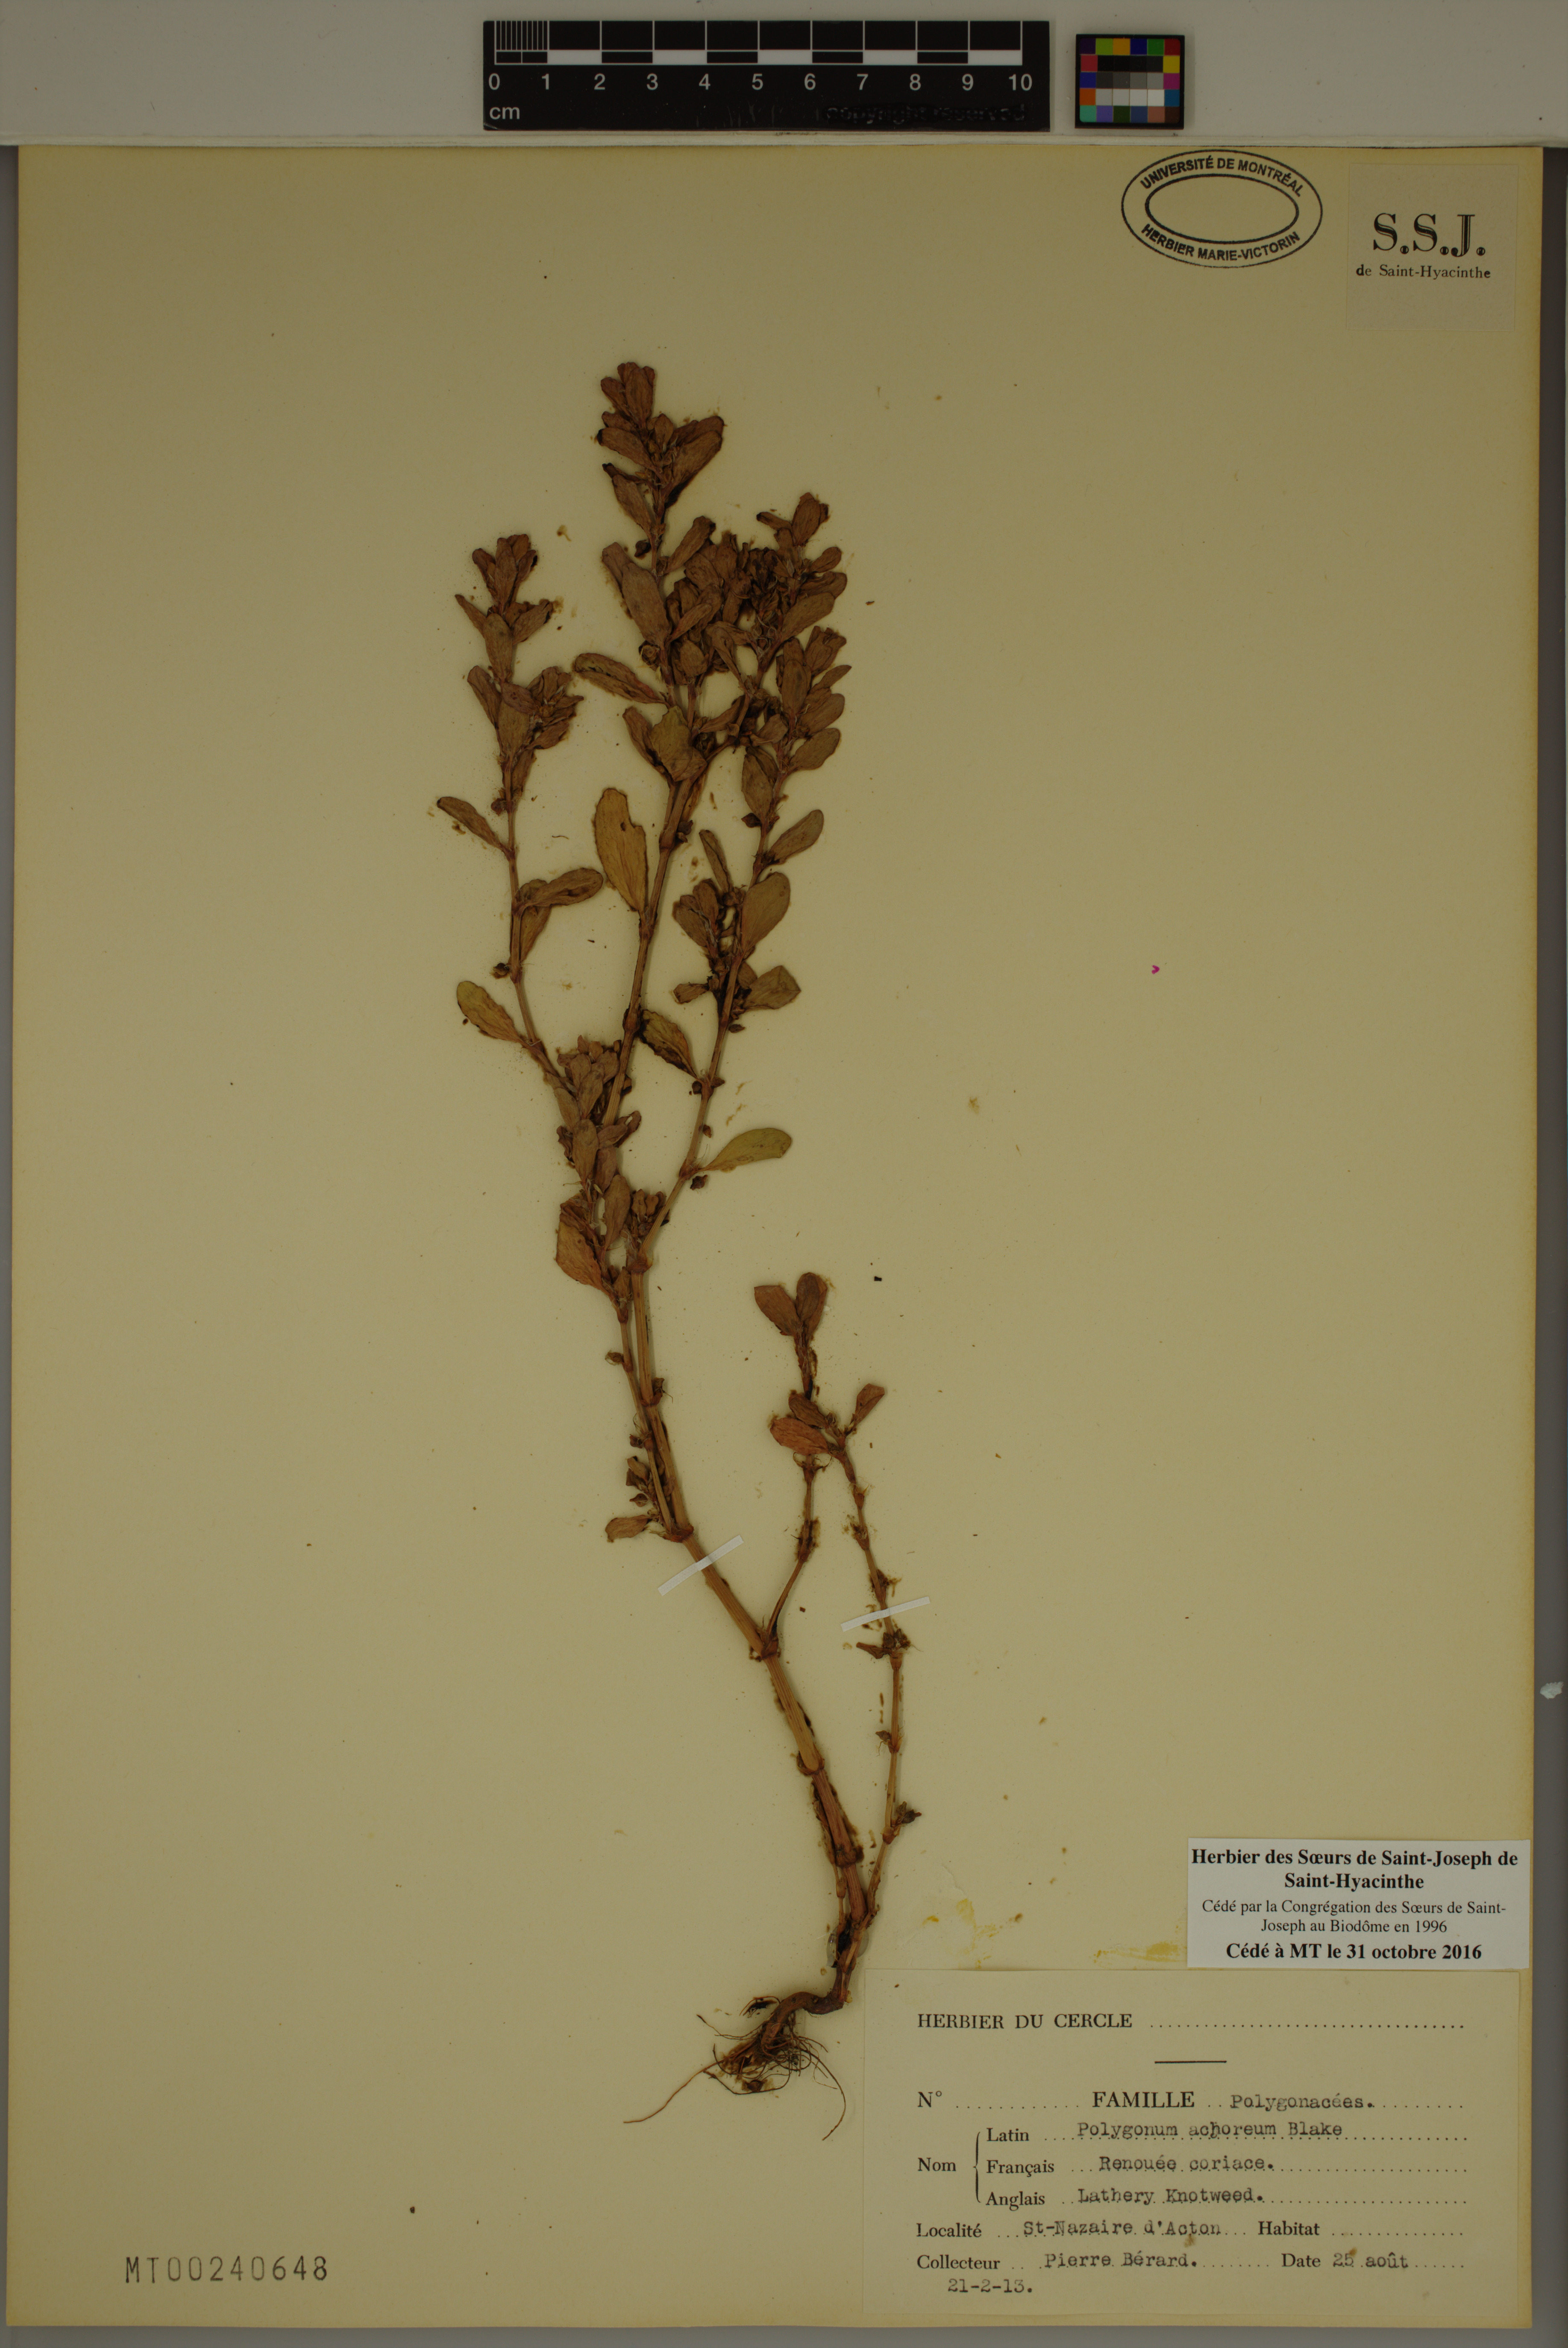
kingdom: Plantae
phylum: Tracheophyta
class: Magnoliopsida
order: Caryophyllales
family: Polygonaceae
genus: Polygonum
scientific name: Polygonum achoreum
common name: Striate knotweed
